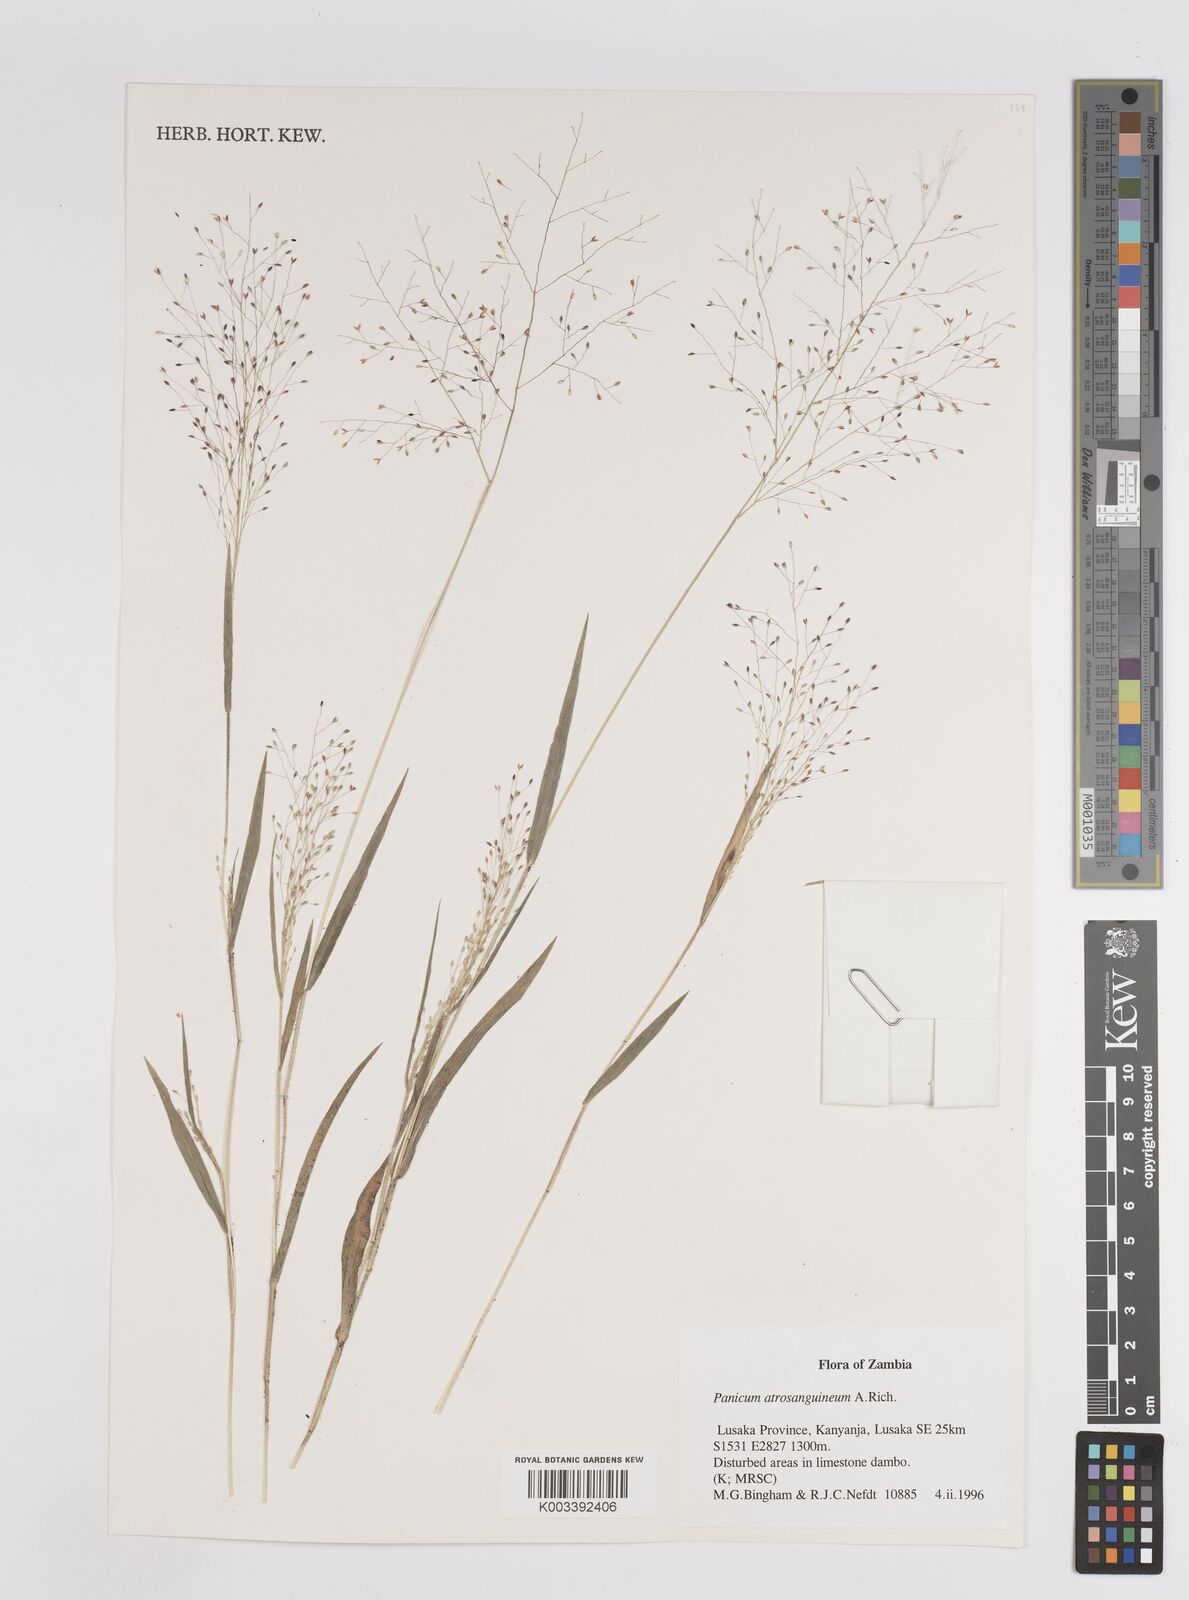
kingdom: Plantae
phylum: Tracheophyta
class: Liliopsida
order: Poales
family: Poaceae
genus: Panicum
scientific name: Panicum atrosanguineum
